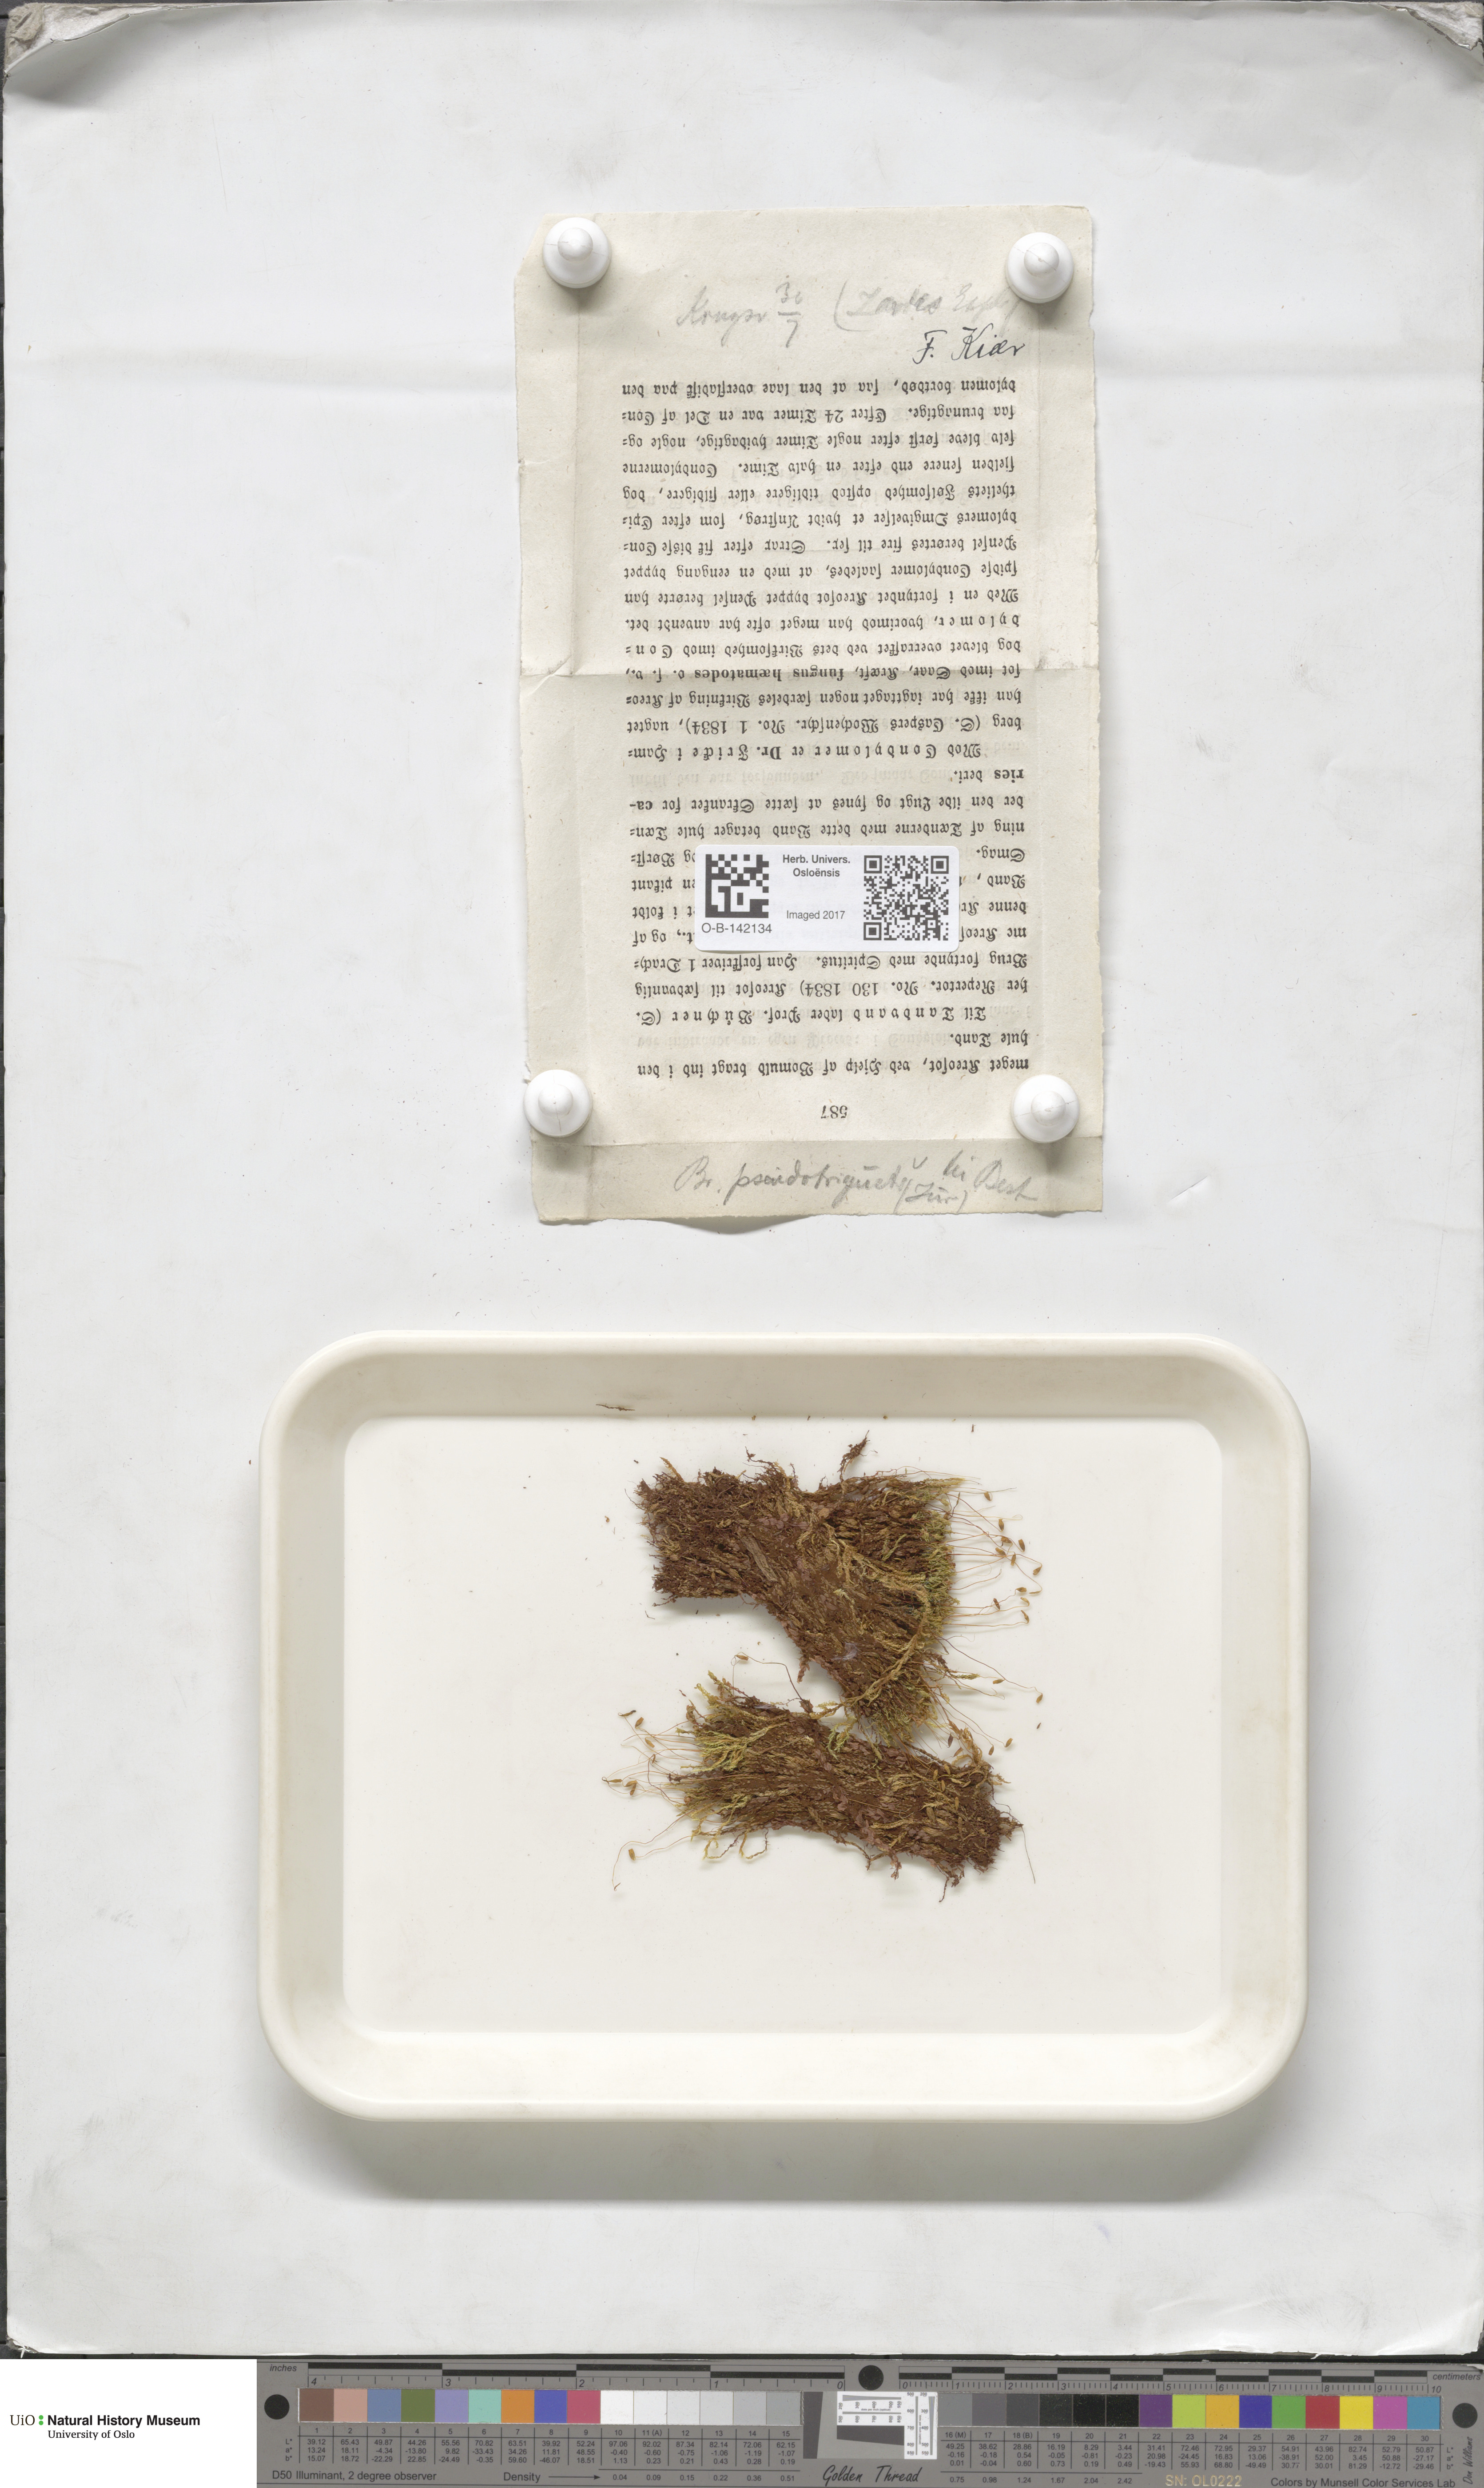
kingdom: Plantae
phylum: Bryophyta
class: Bryopsida
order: Bryales
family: Bryaceae
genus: Ptychostomum
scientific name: Ptychostomum pseudotriquetrum
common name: Long-leaved thread moss
